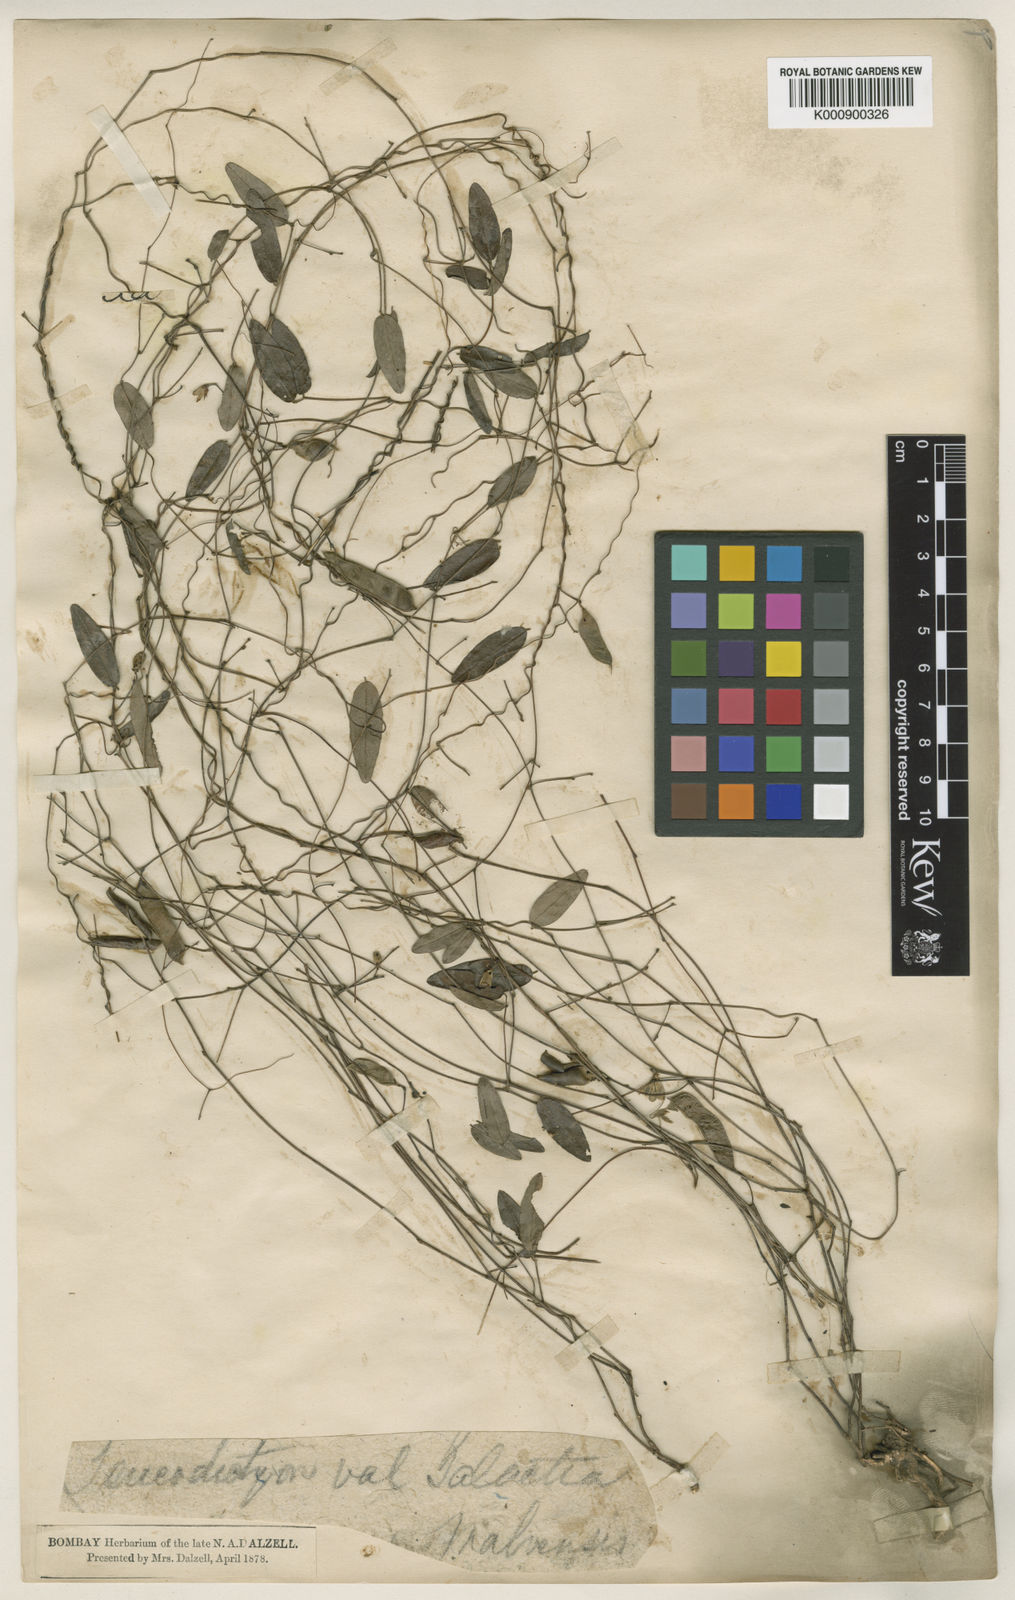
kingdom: Plantae
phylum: Tracheophyta
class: Magnoliopsida
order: Fabales
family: Fabaceae
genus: Galactia
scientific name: Galactia
